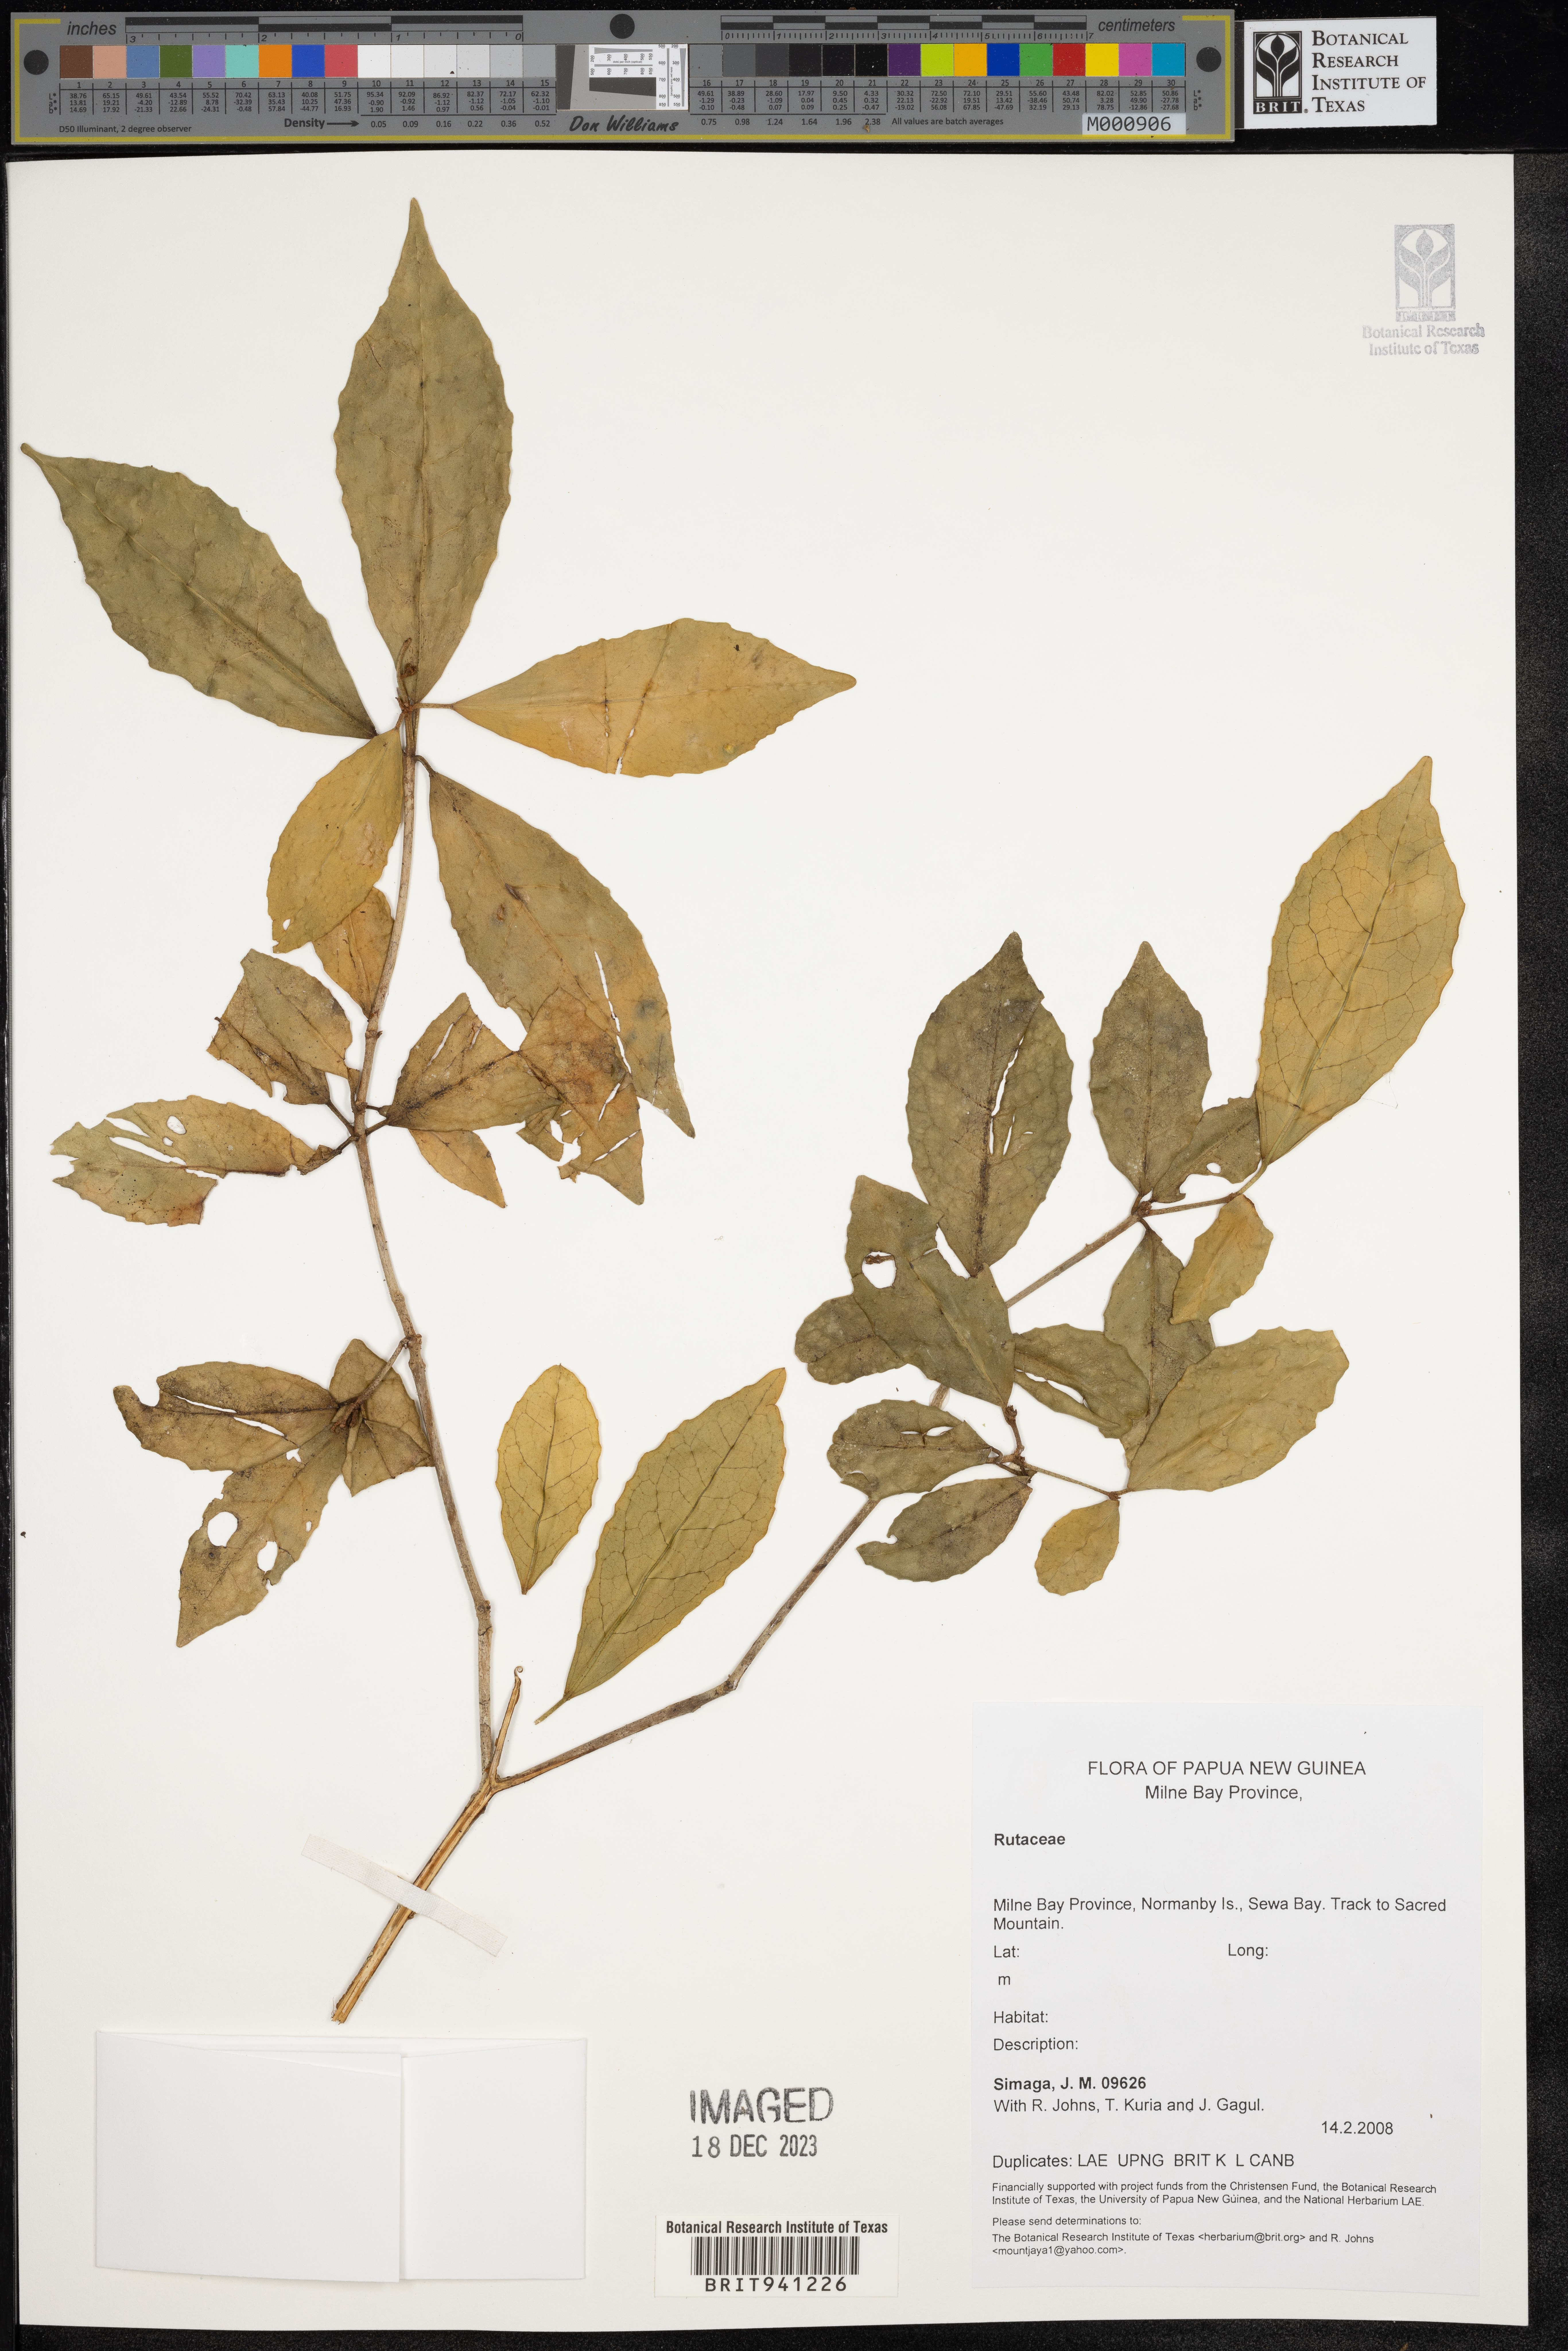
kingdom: Plantae
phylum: Tracheophyta
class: Magnoliopsida
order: Sapindales
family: Rutaceae
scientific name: Rutaceae
